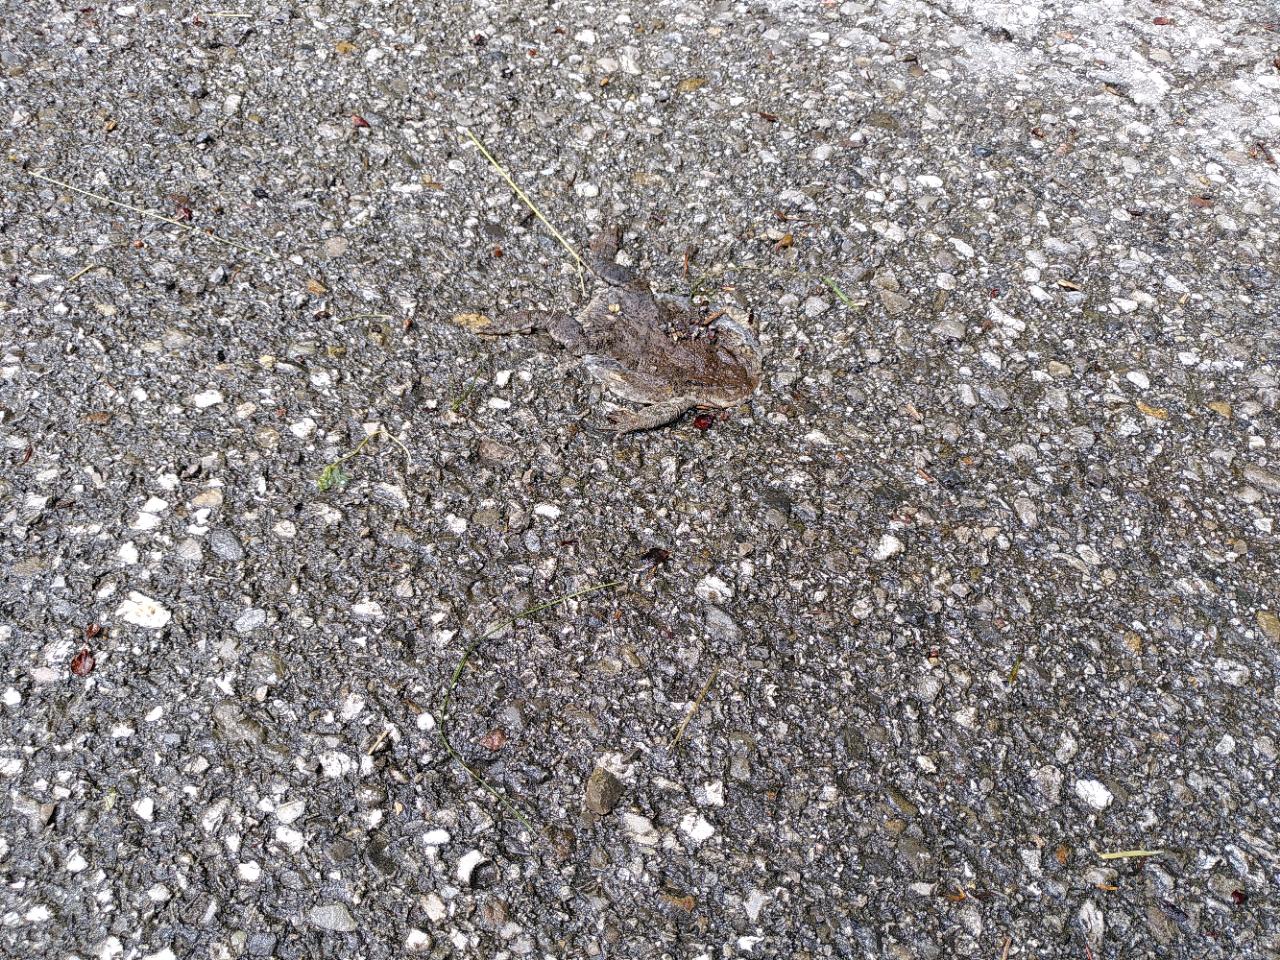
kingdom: Animalia
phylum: Chordata
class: Amphibia
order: Anura
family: Bufonidae
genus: Bufo
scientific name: Bufo bufo
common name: Common toad
